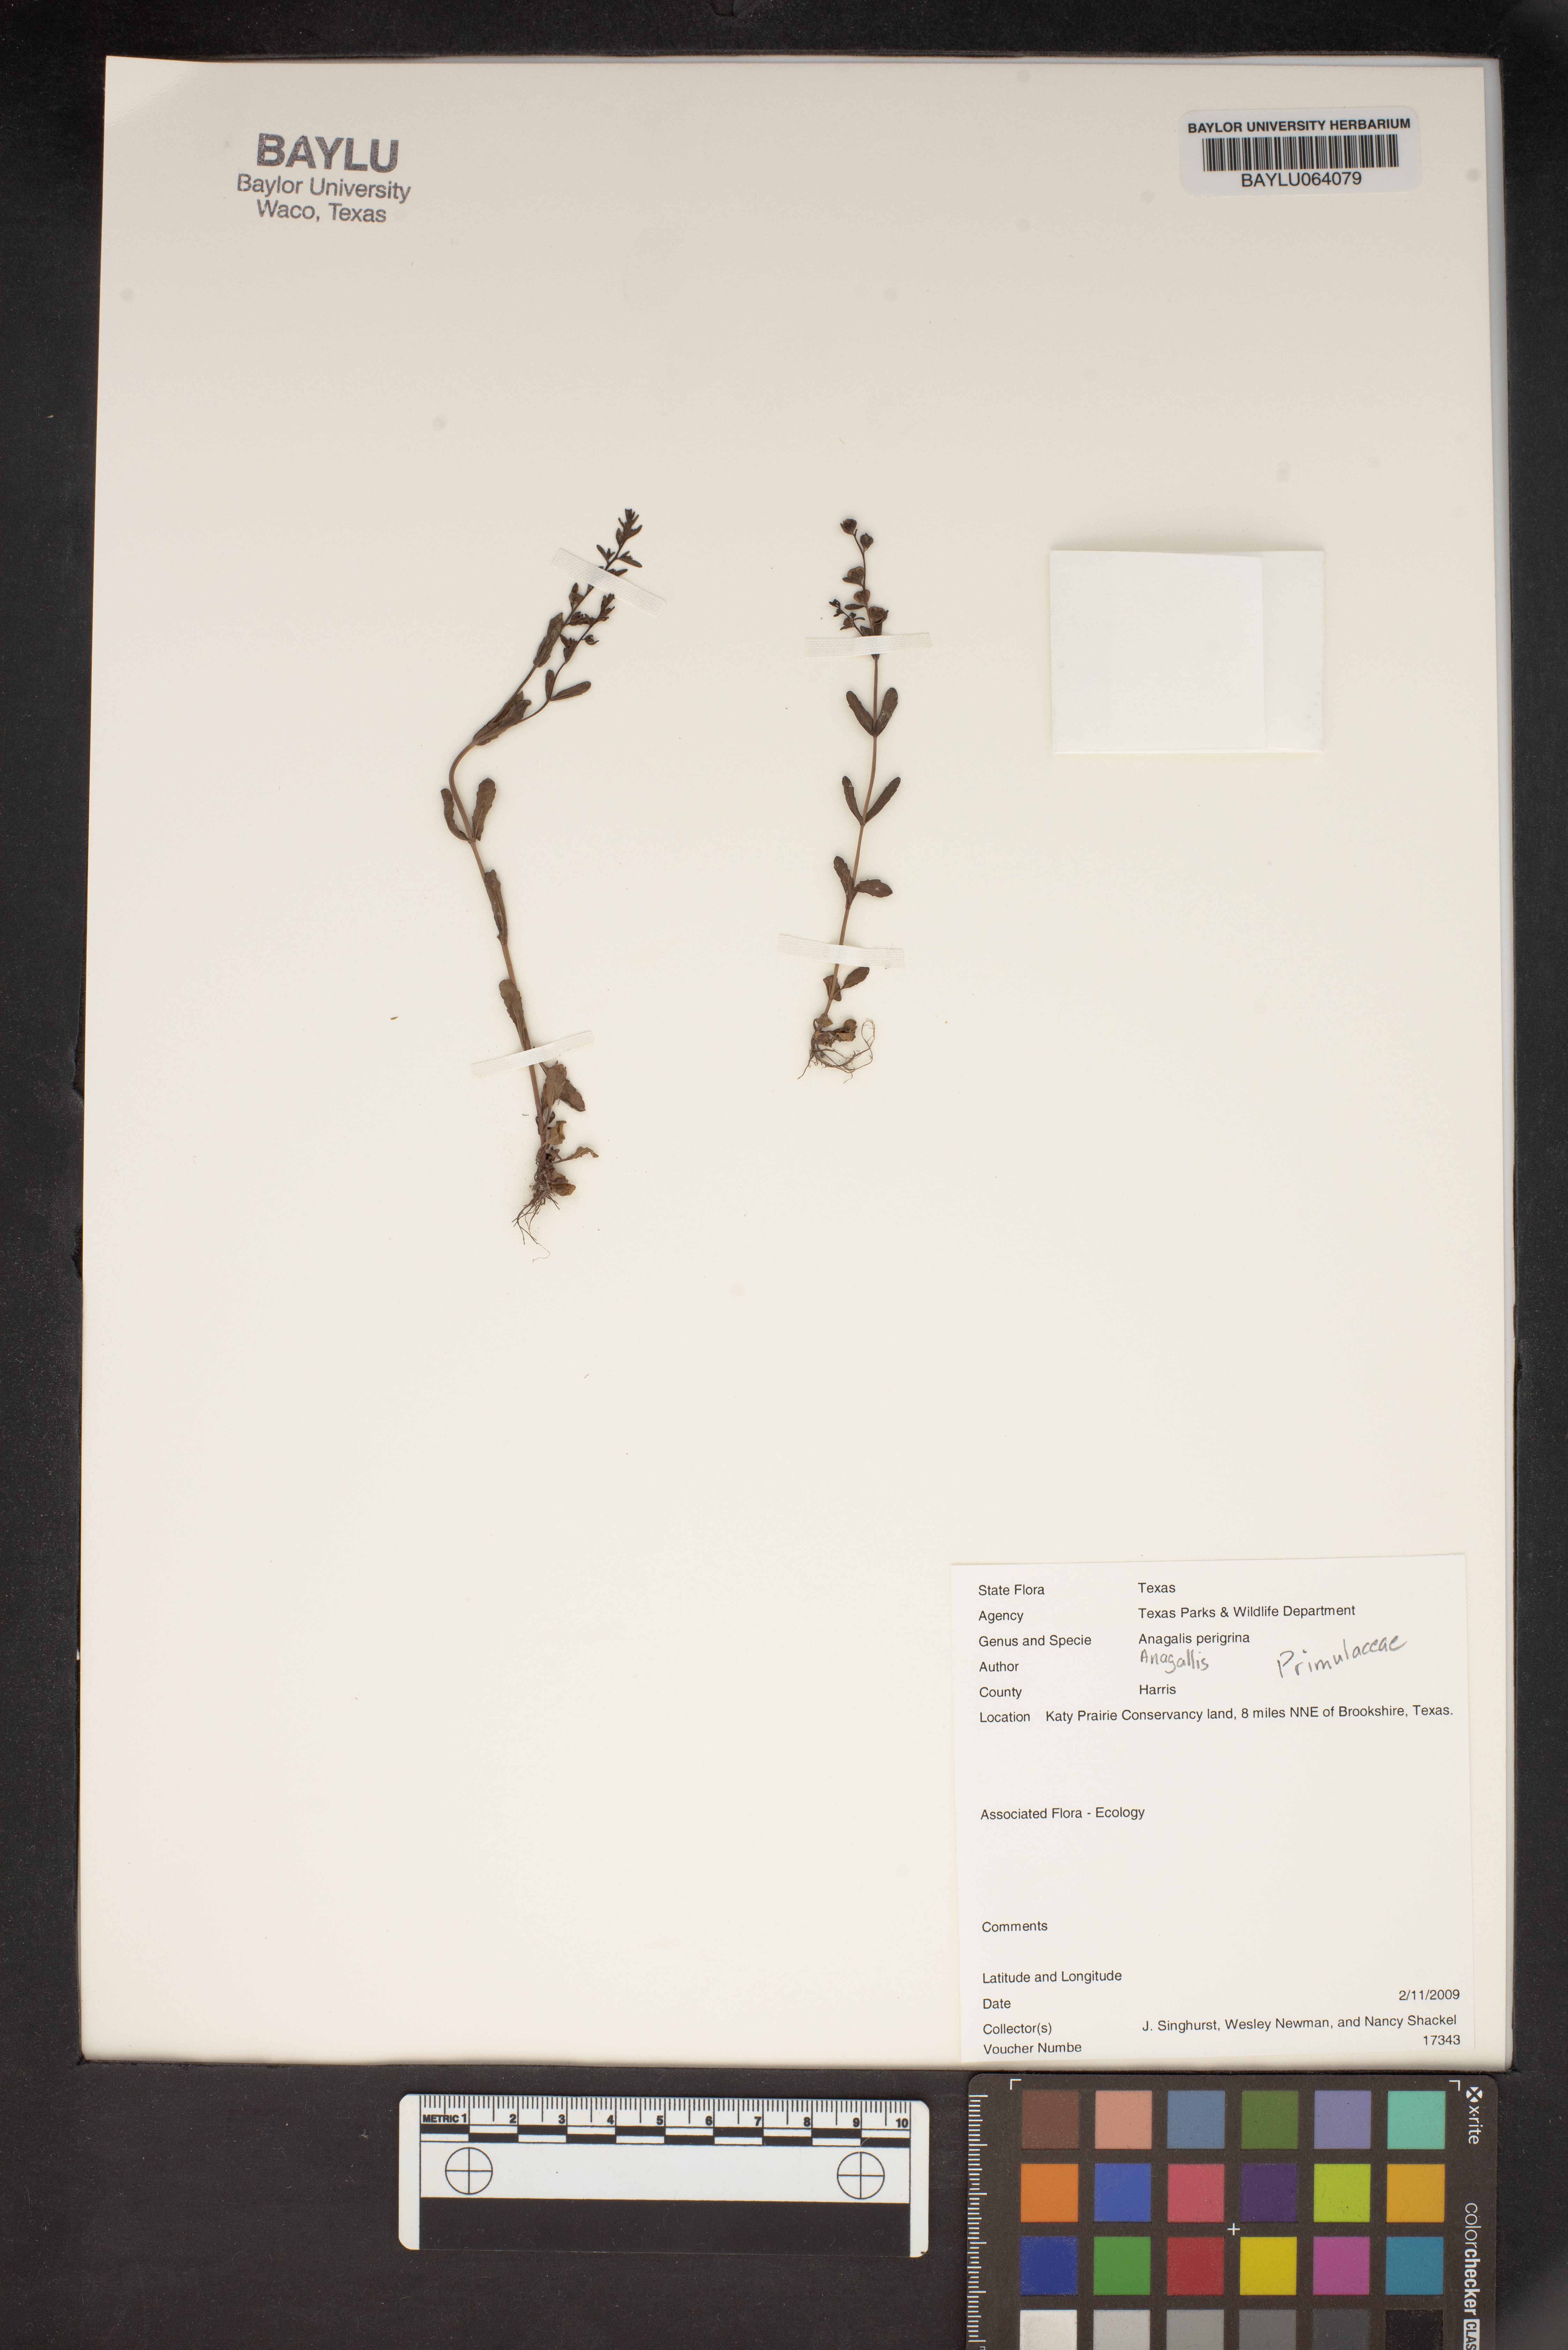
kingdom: Plantae
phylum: Tracheophyta
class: Magnoliopsida
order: Ericales
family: Primulaceae
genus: Lysimachia
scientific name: Lysimachia Anagallis spec
